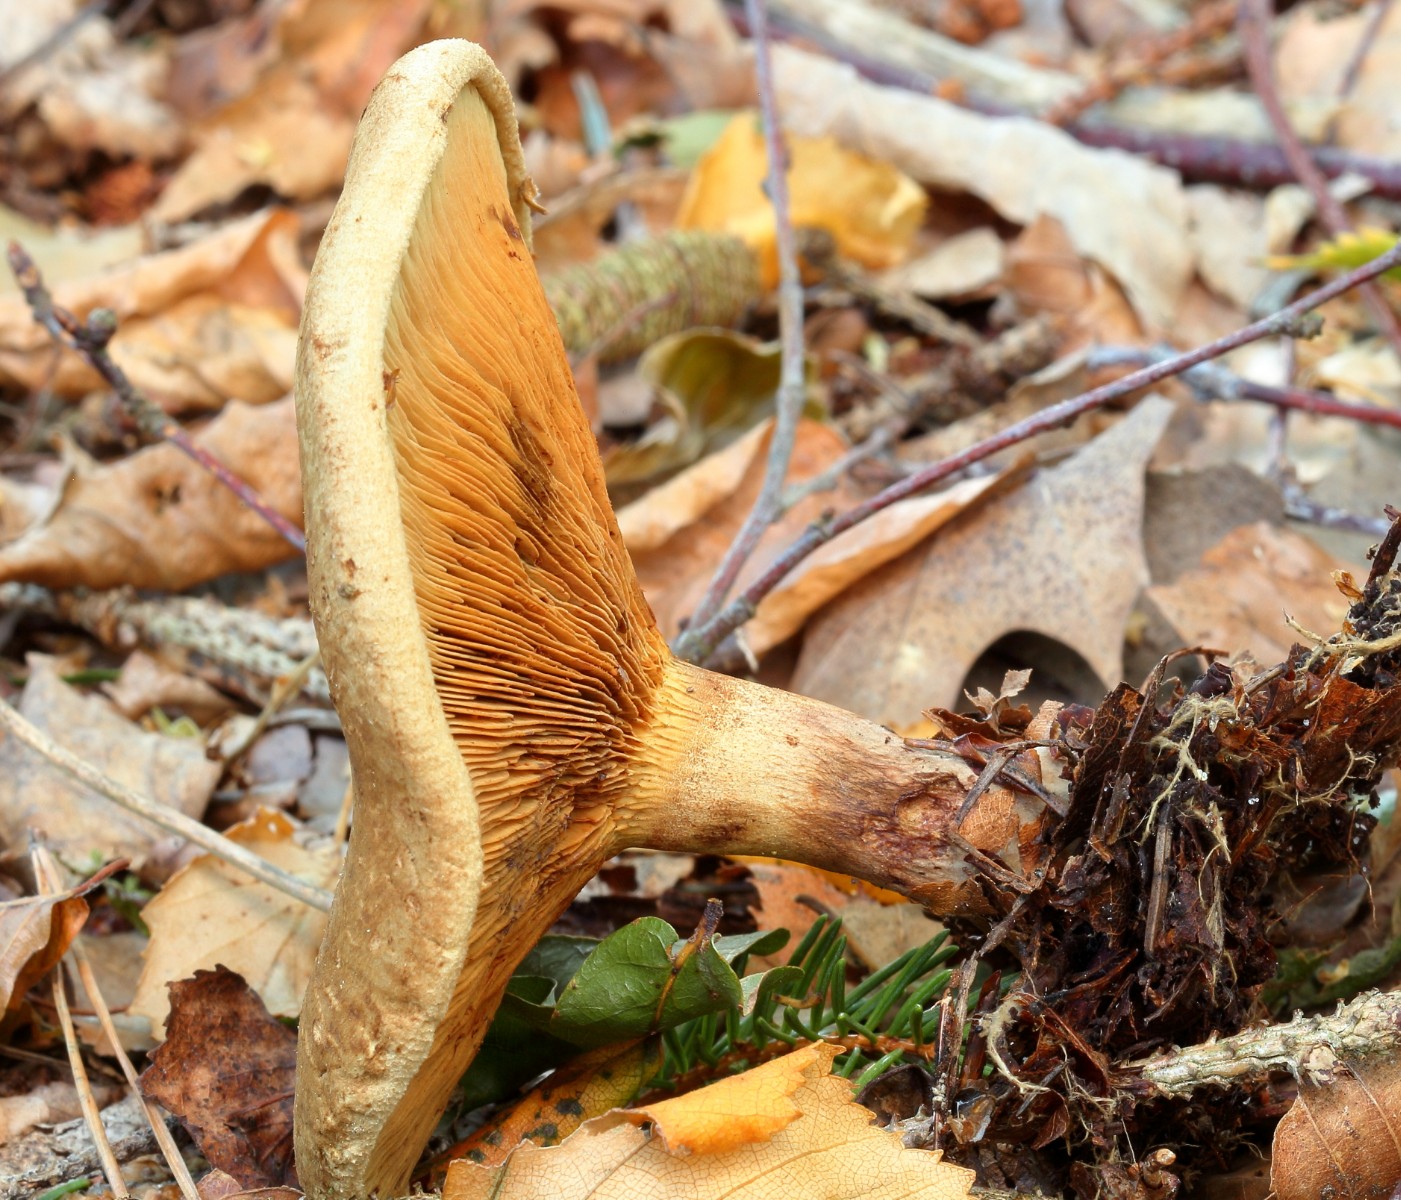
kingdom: Fungi
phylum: Basidiomycota
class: Agaricomycetes
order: Boletales
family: Paxillaceae
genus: Paxillus
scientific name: Paxillus involutus
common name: almindelig netbladhat
